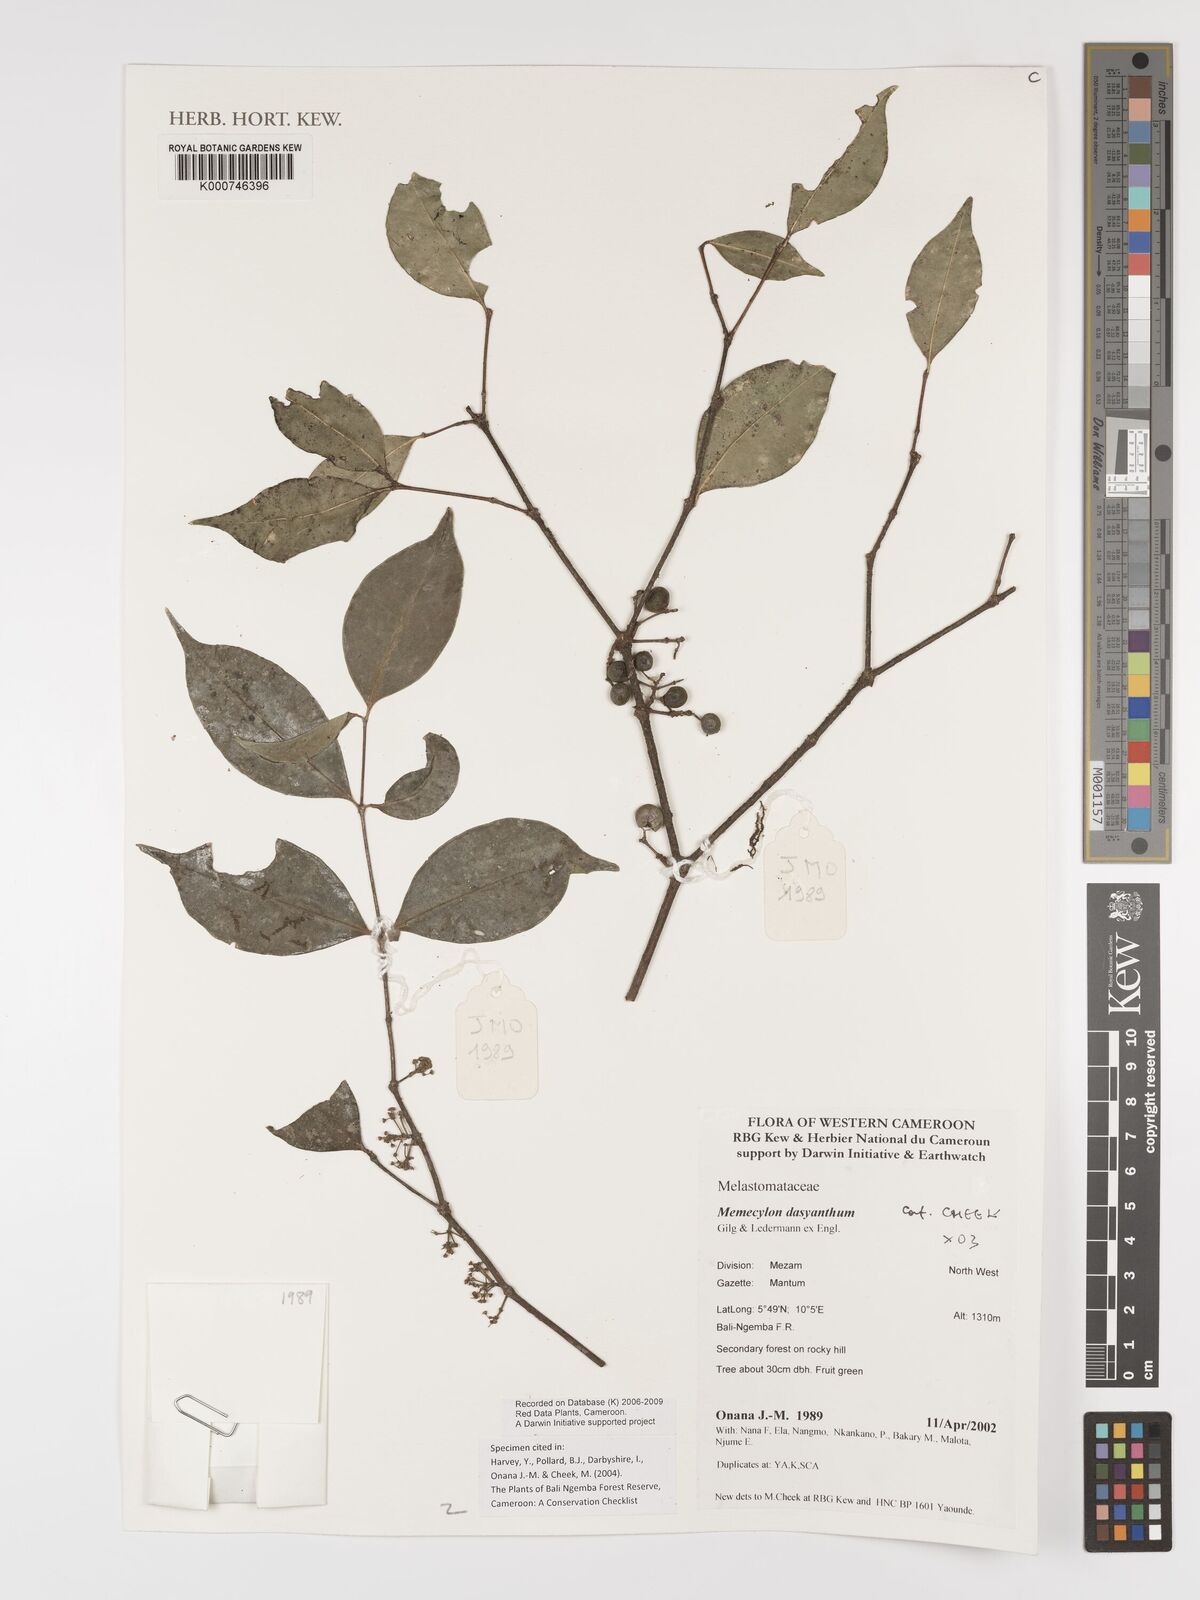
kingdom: Plantae
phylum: Tracheophyta
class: Magnoliopsida
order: Myrtales
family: Melastomataceae
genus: Memecylon
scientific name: Memecylon dasyanthum
